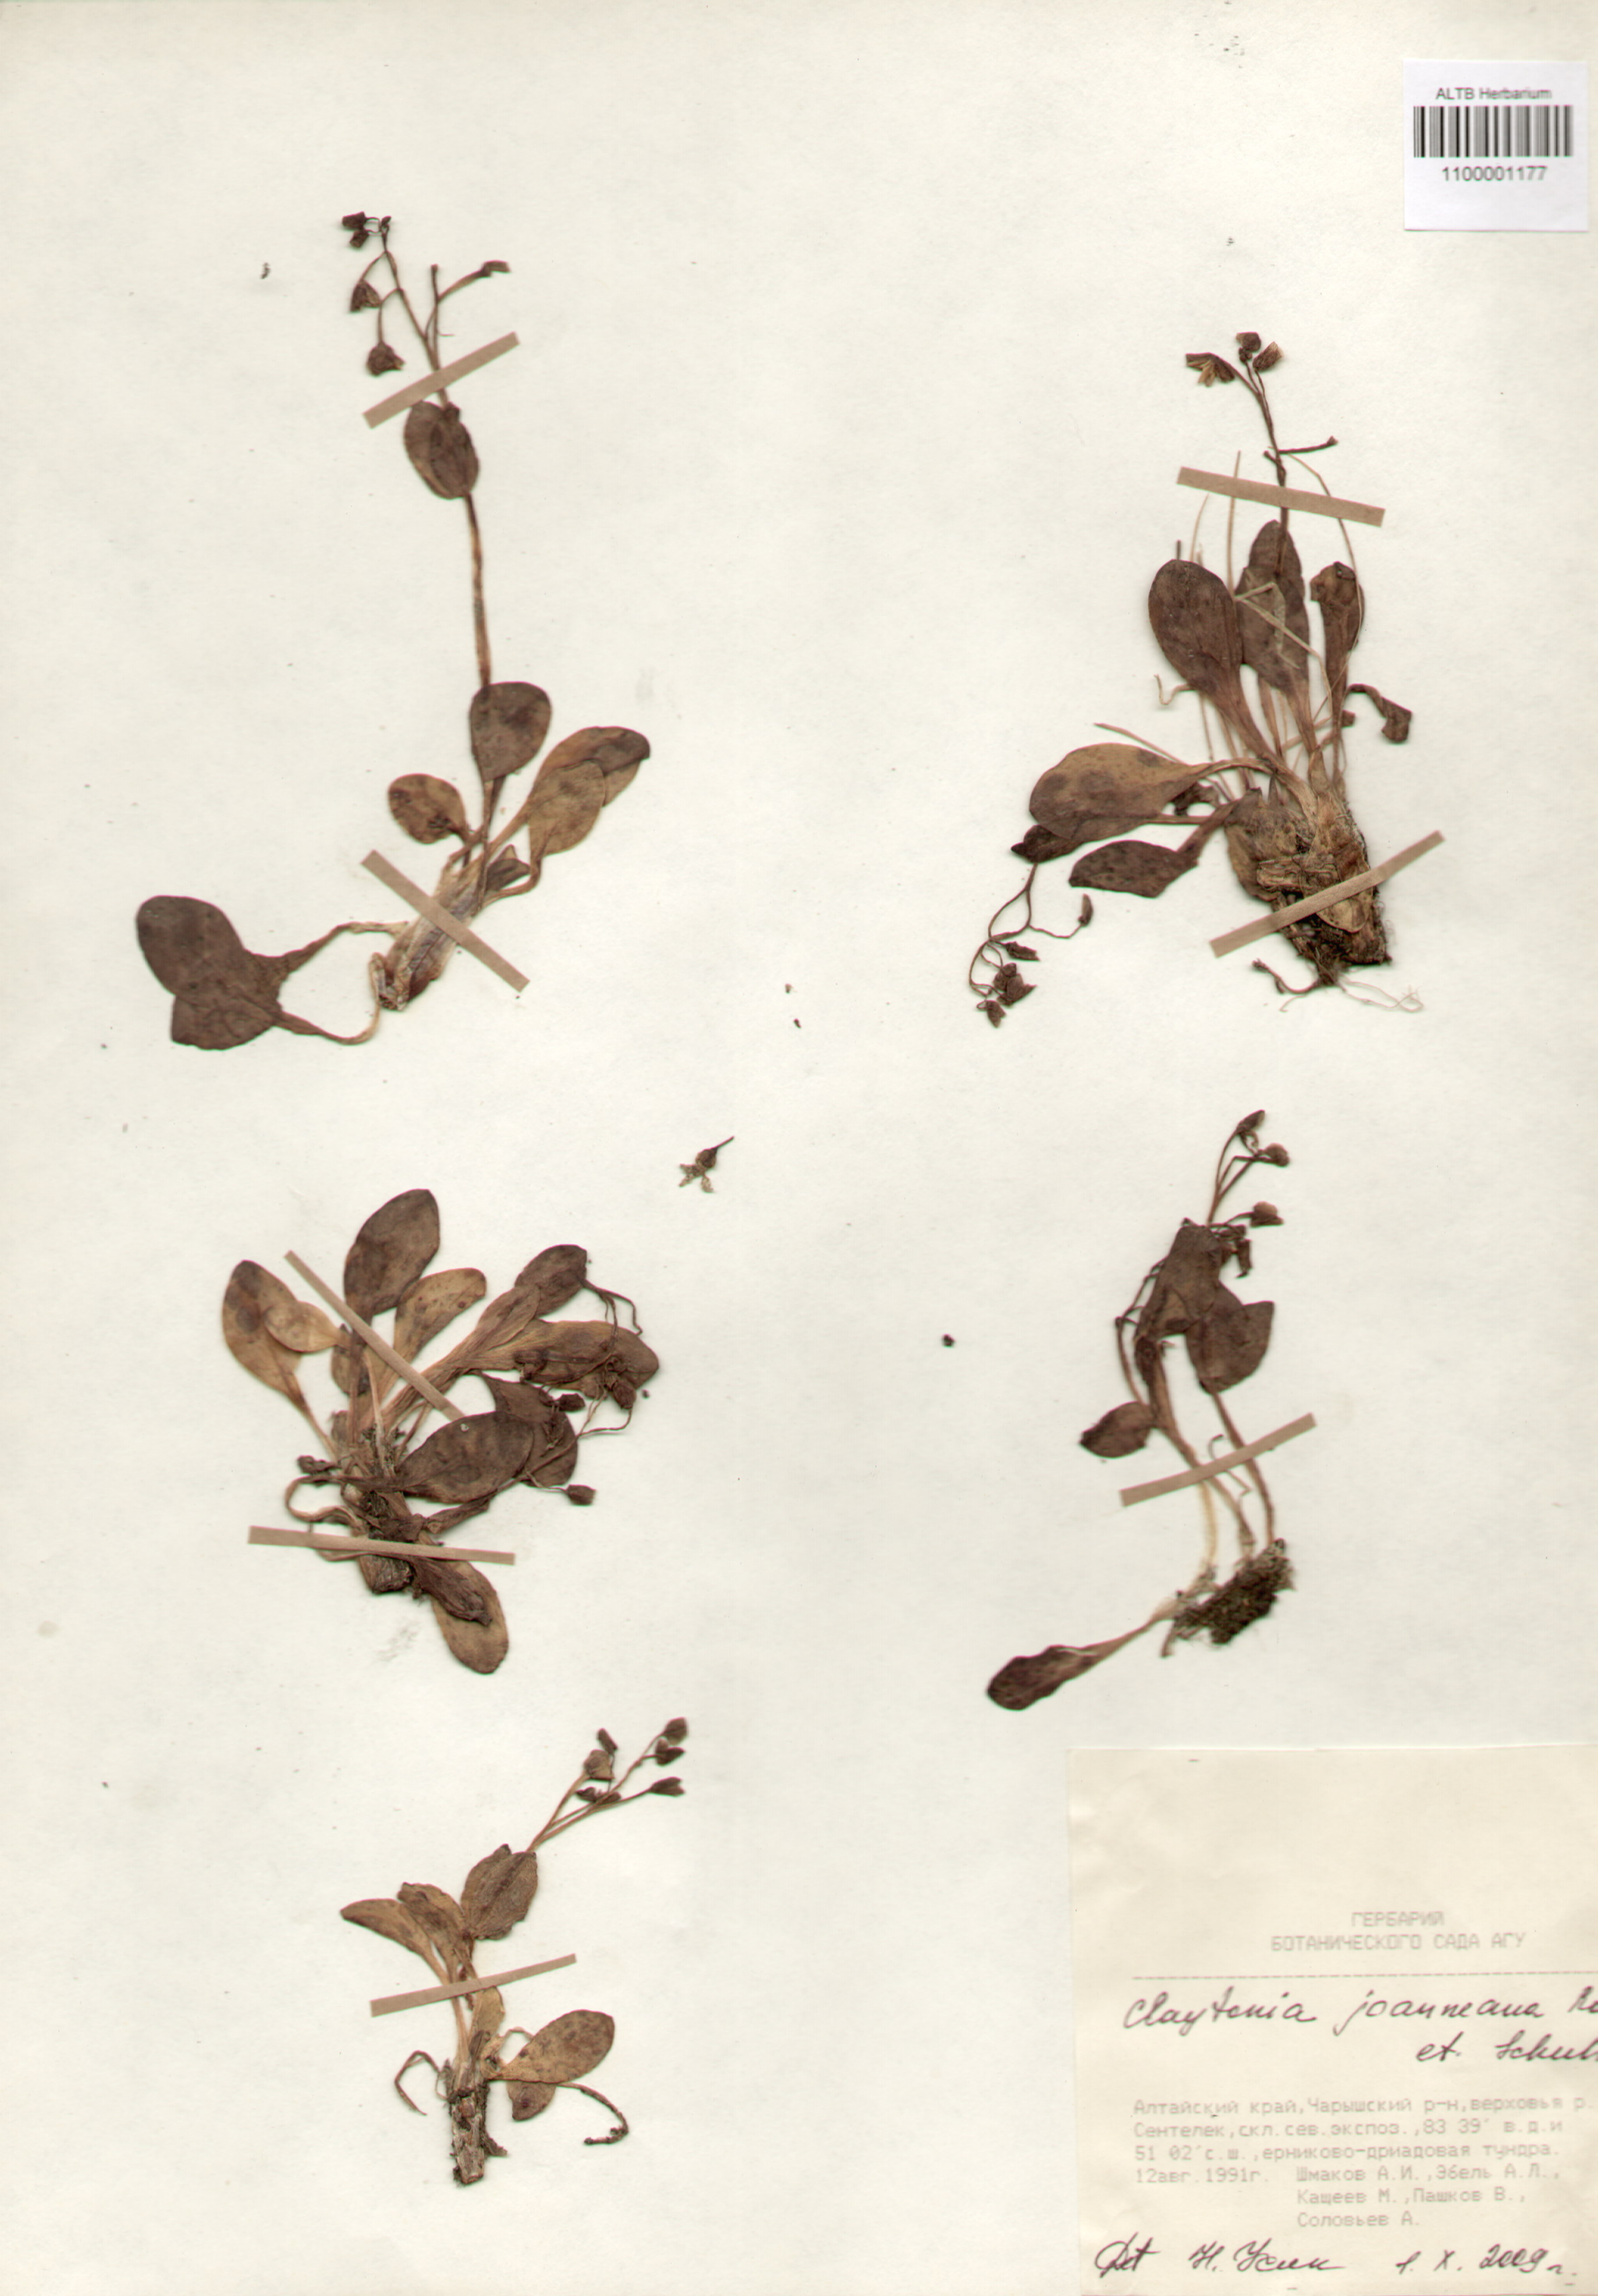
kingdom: Plantae
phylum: Tracheophyta
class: Magnoliopsida
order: Caryophyllales
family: Montiaceae
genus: Claytonia
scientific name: Claytonia joanneana
